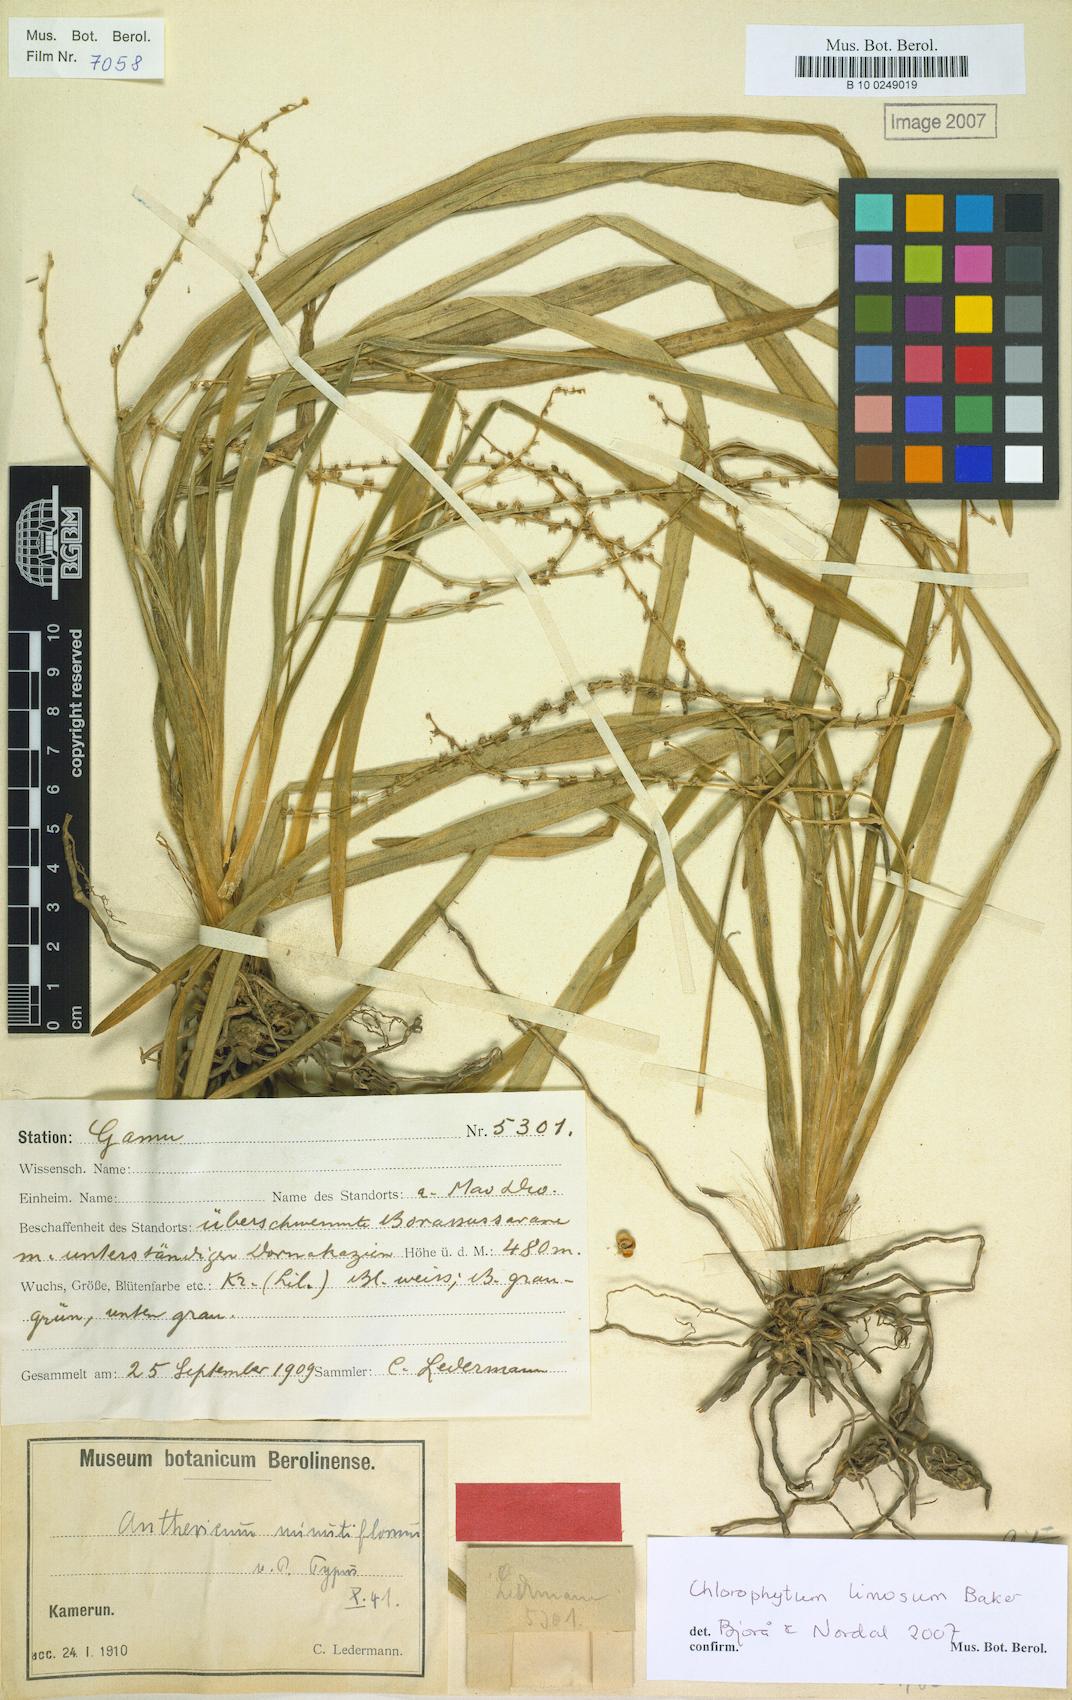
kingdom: Plantae
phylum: Tracheophyta
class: Liliopsida
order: Asparagales
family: Asparagaceae
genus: Chlorophytum
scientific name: Chlorophytum altum
